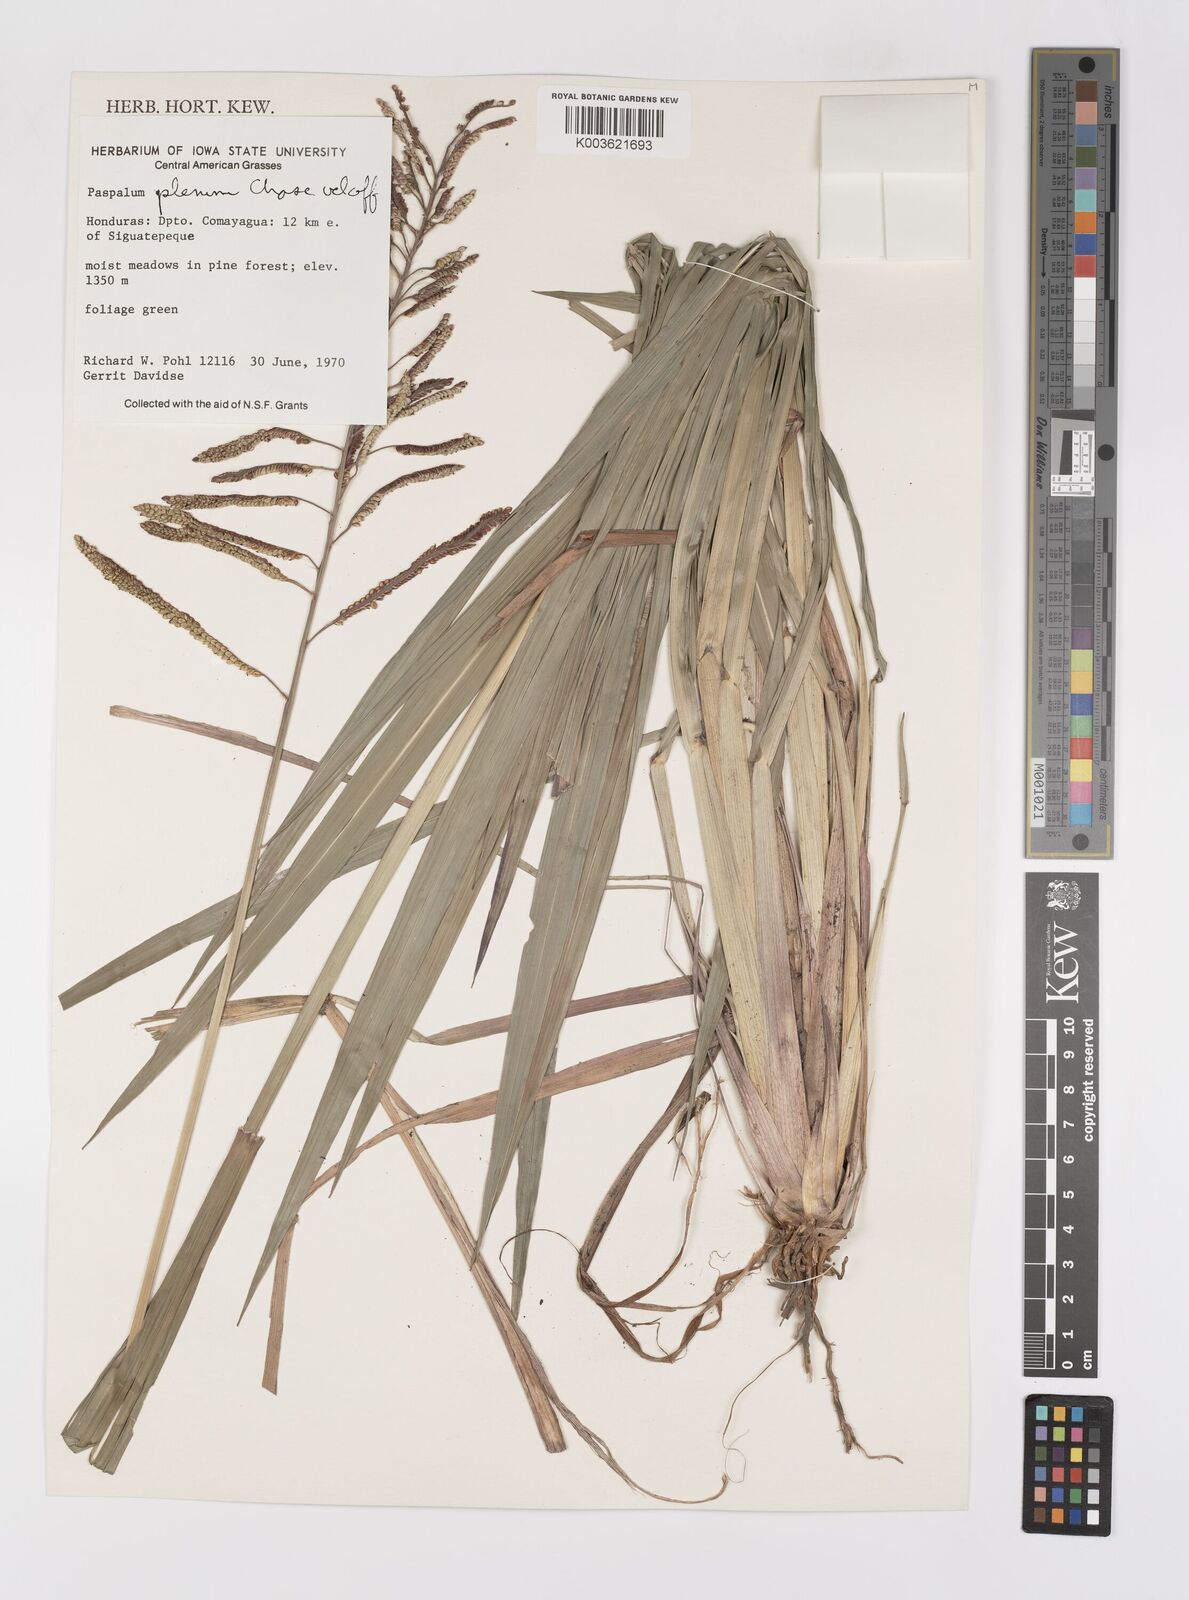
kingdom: Plantae
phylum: Tracheophyta
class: Liliopsida
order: Poales
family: Poaceae
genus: Paspalum
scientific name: Paspalum plenum
